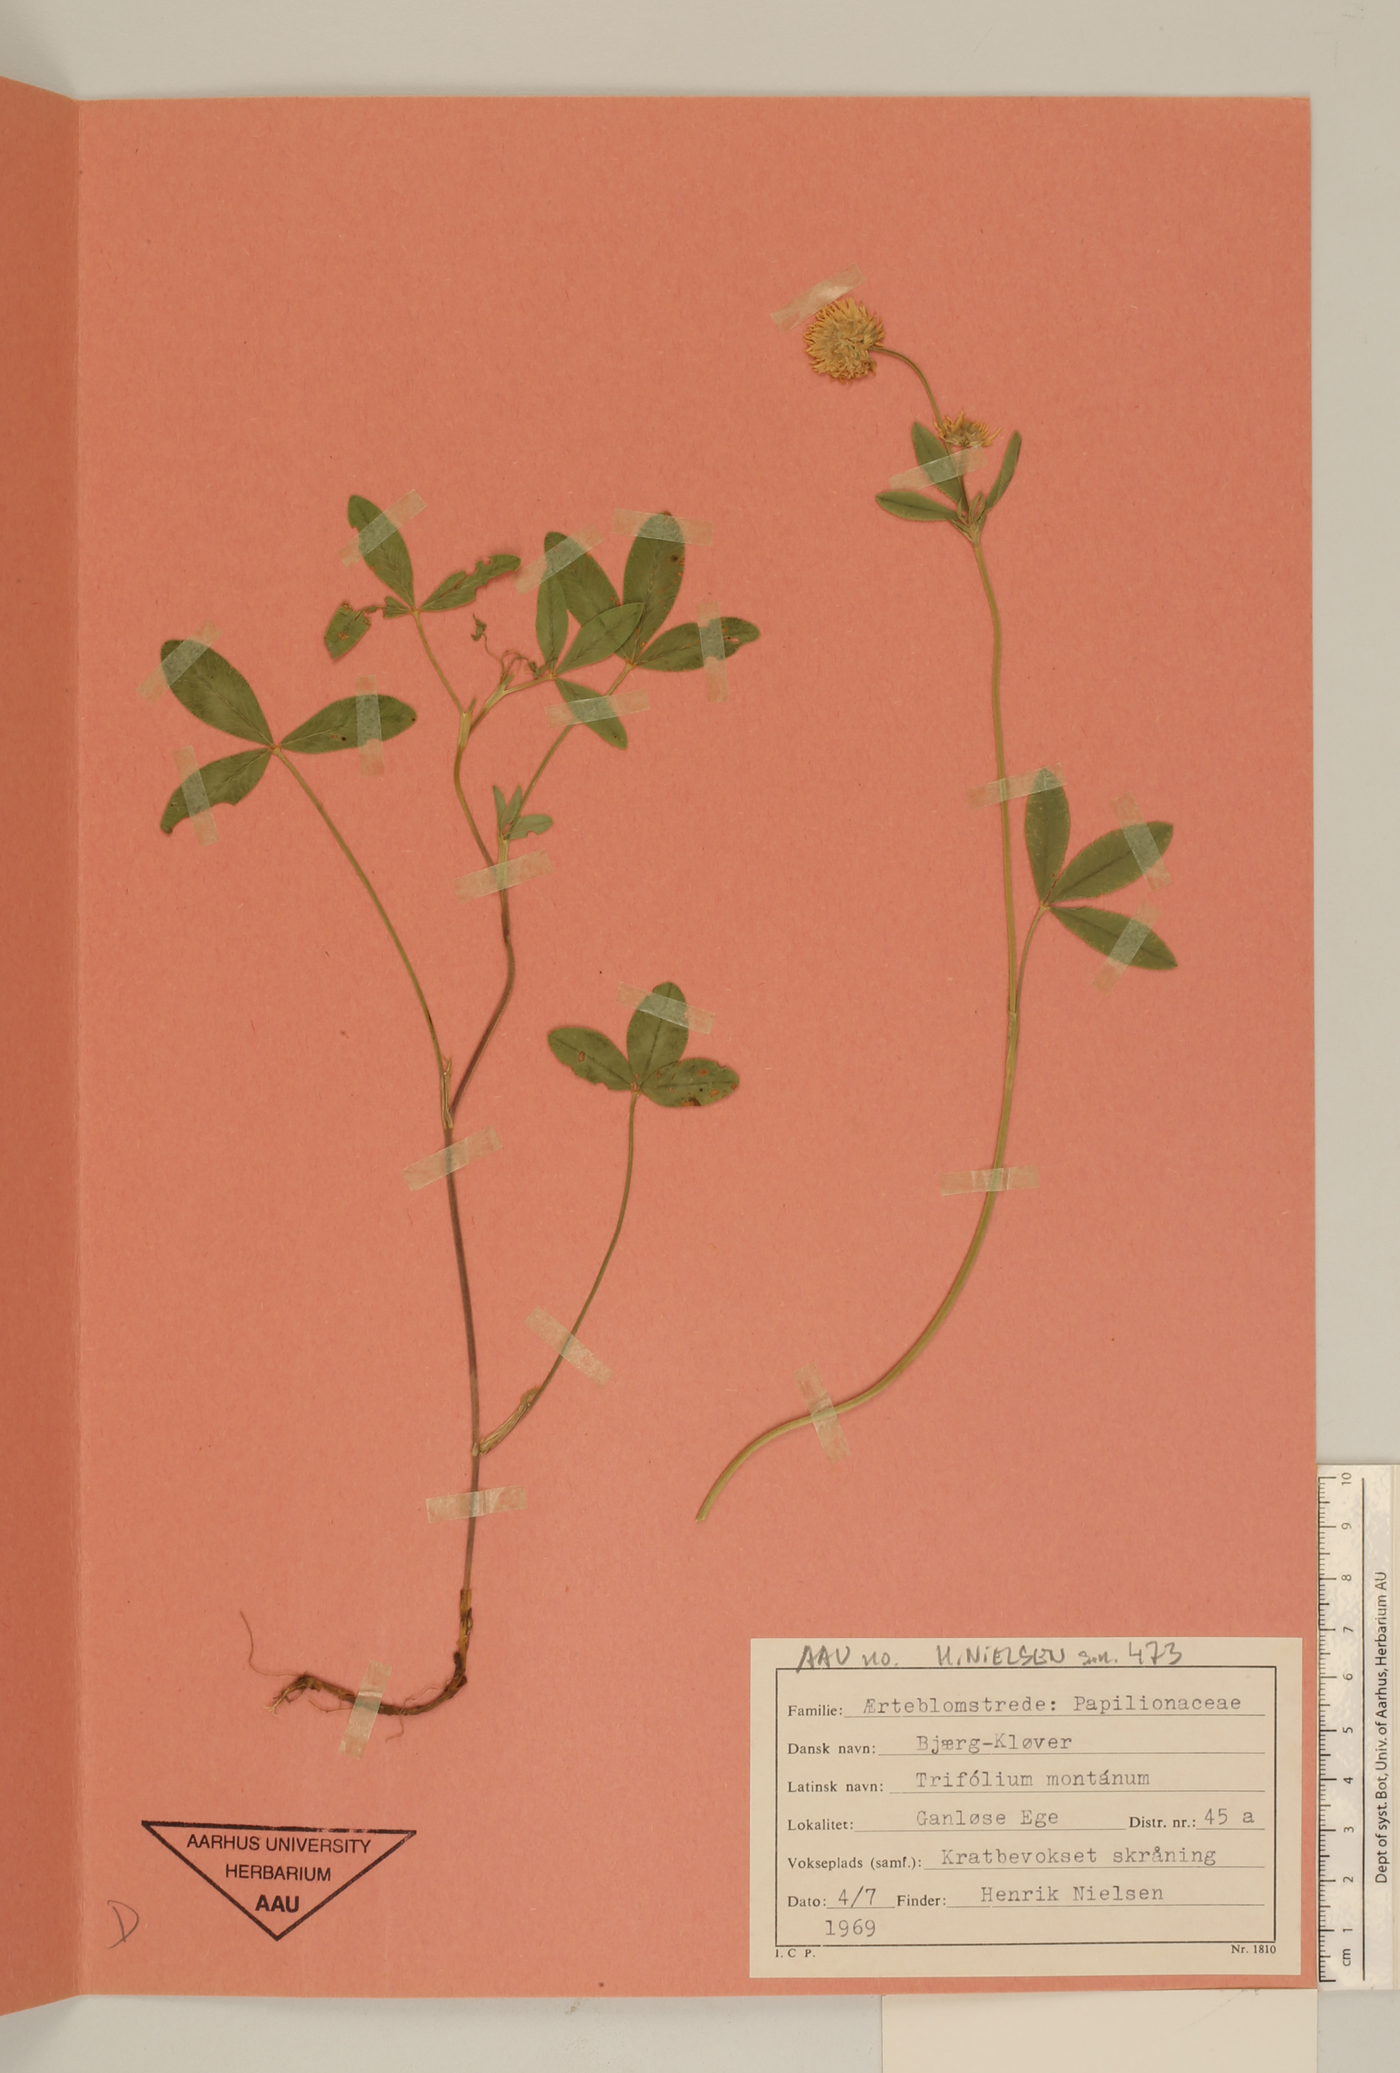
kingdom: Plantae
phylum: Tracheophyta
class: Magnoliopsida
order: Fabales
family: Fabaceae
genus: Trifolium
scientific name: Trifolium montanum
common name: Mountain clover
